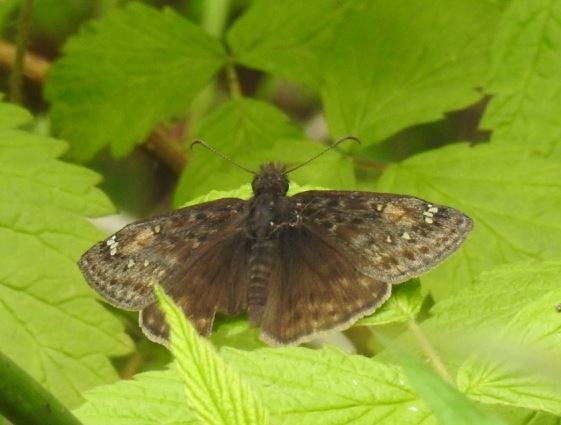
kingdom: Animalia
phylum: Arthropoda
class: Insecta
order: Lepidoptera
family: Hesperiidae
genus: Gesta
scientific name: Gesta
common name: Juvenal's Duskywing
